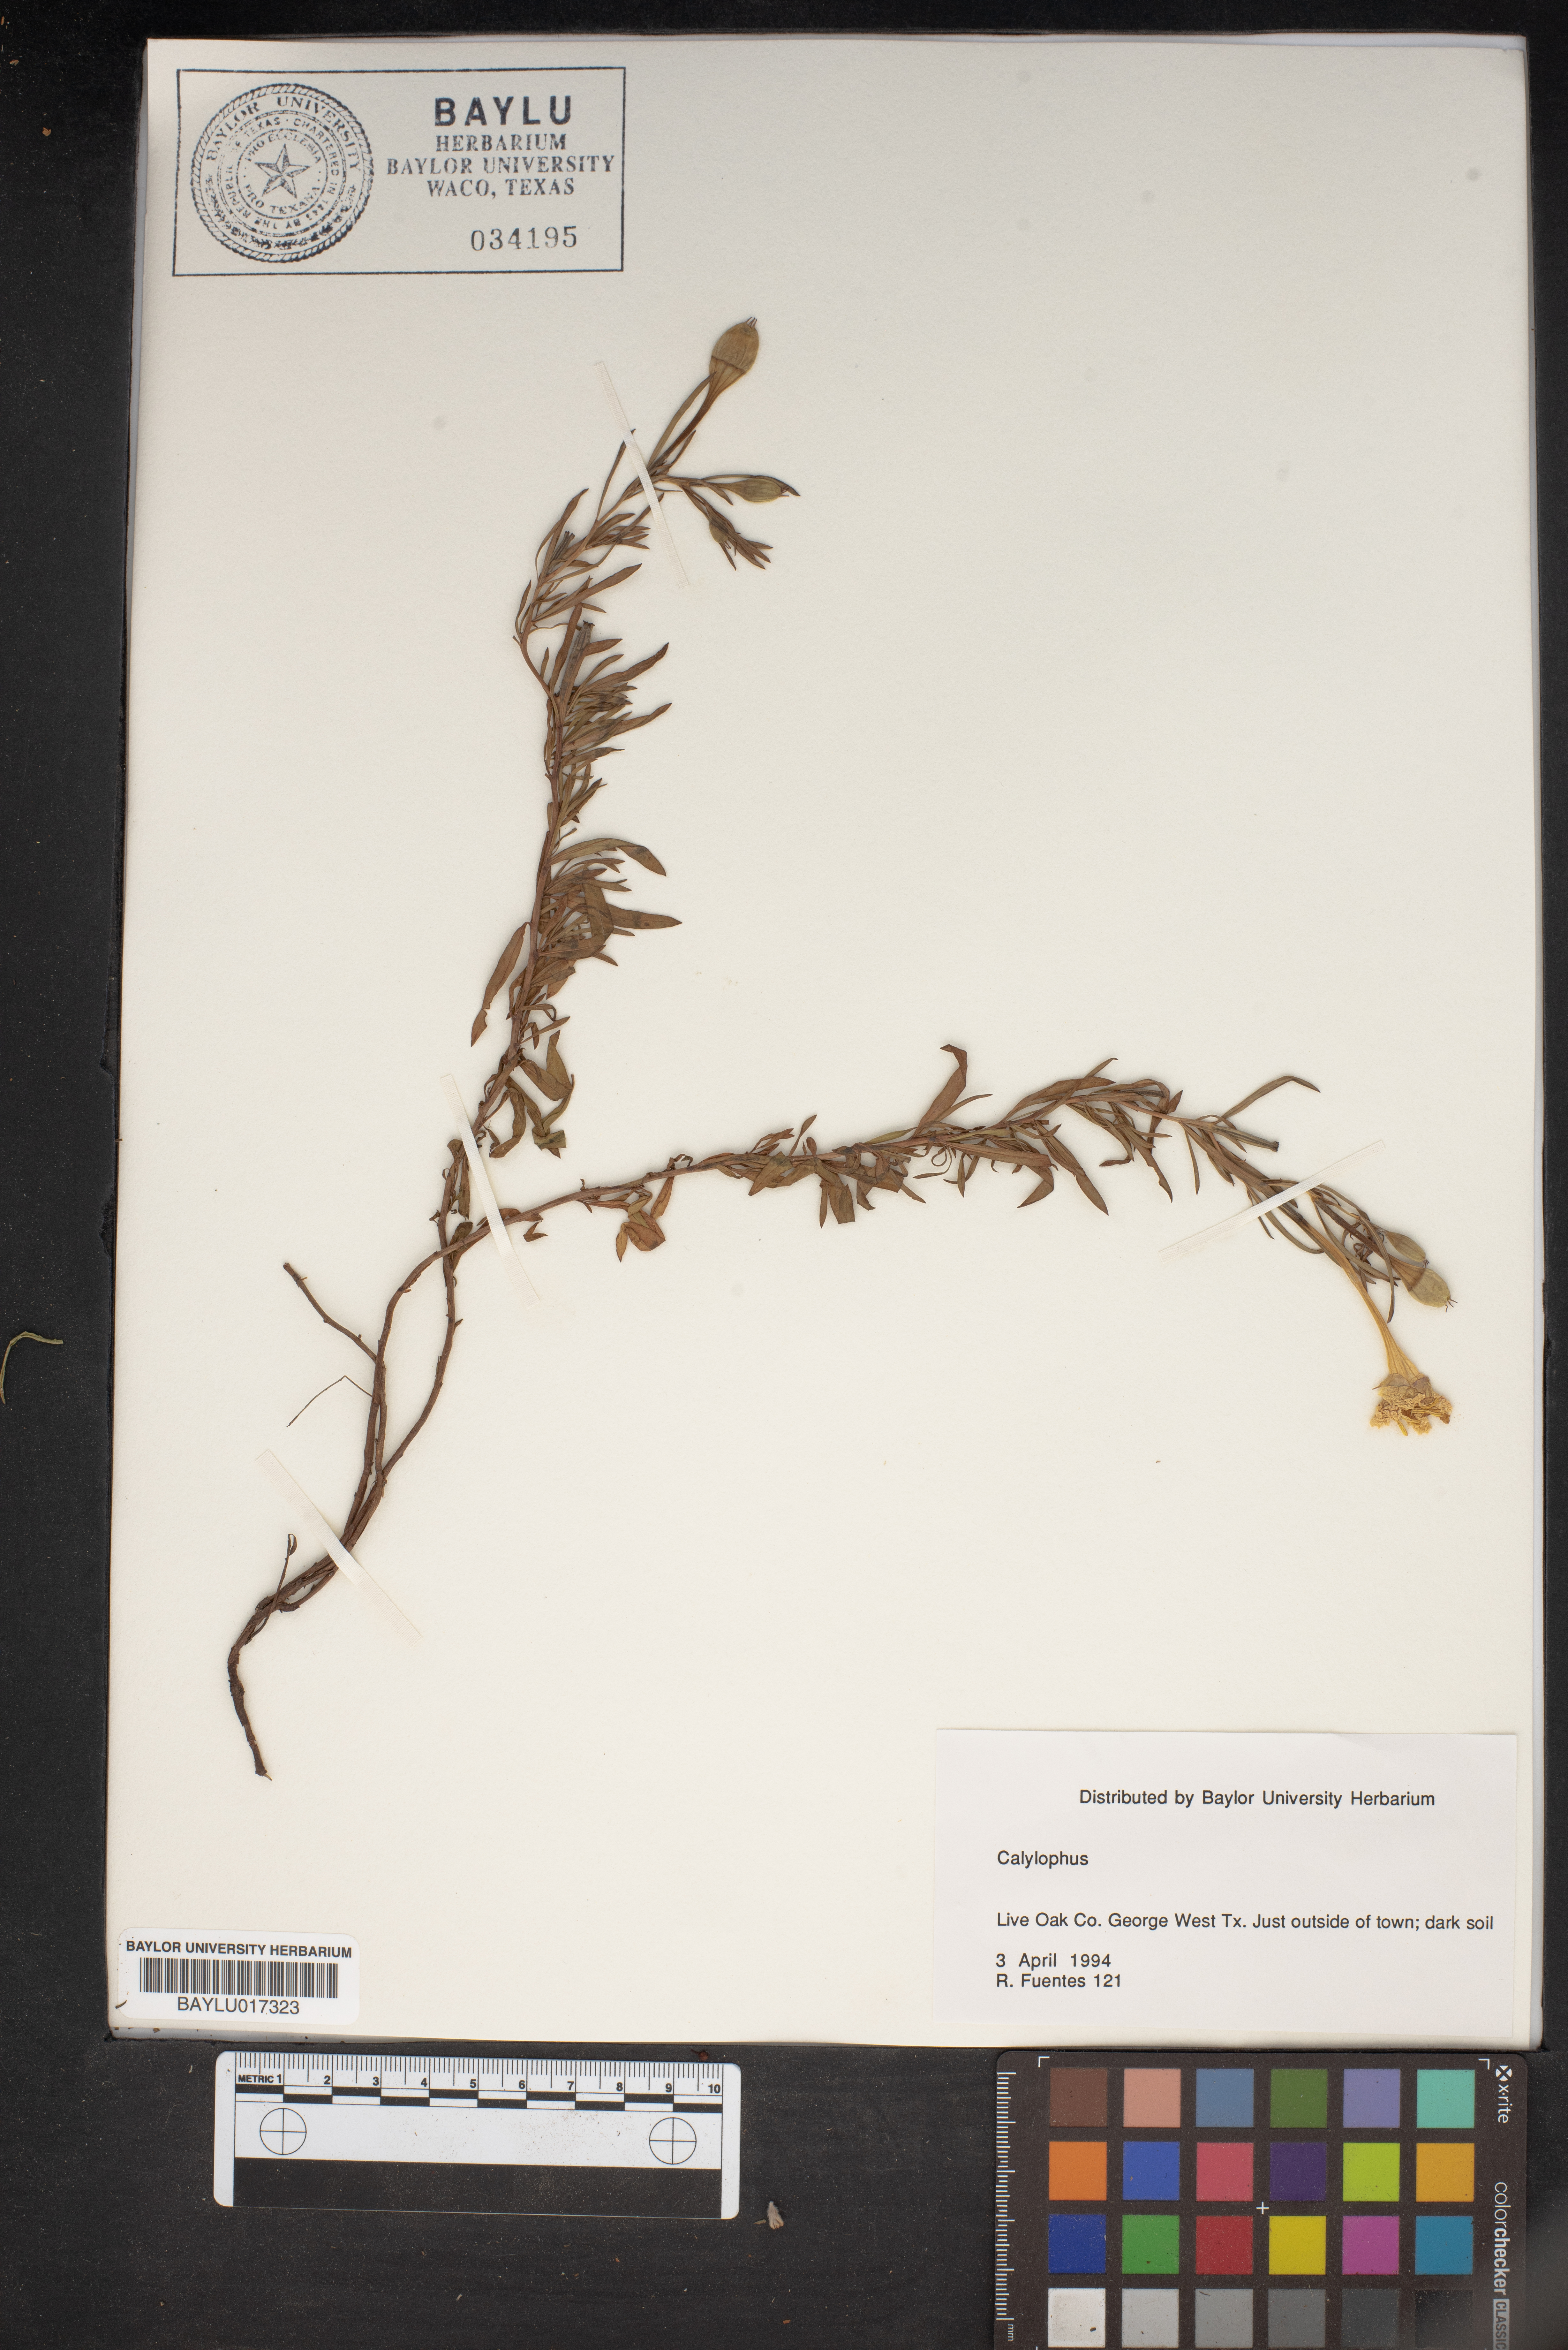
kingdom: Plantae
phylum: Tracheophyta
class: Magnoliopsida
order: Myrtales
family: Onagraceae
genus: Oenothera
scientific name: Oenothera
